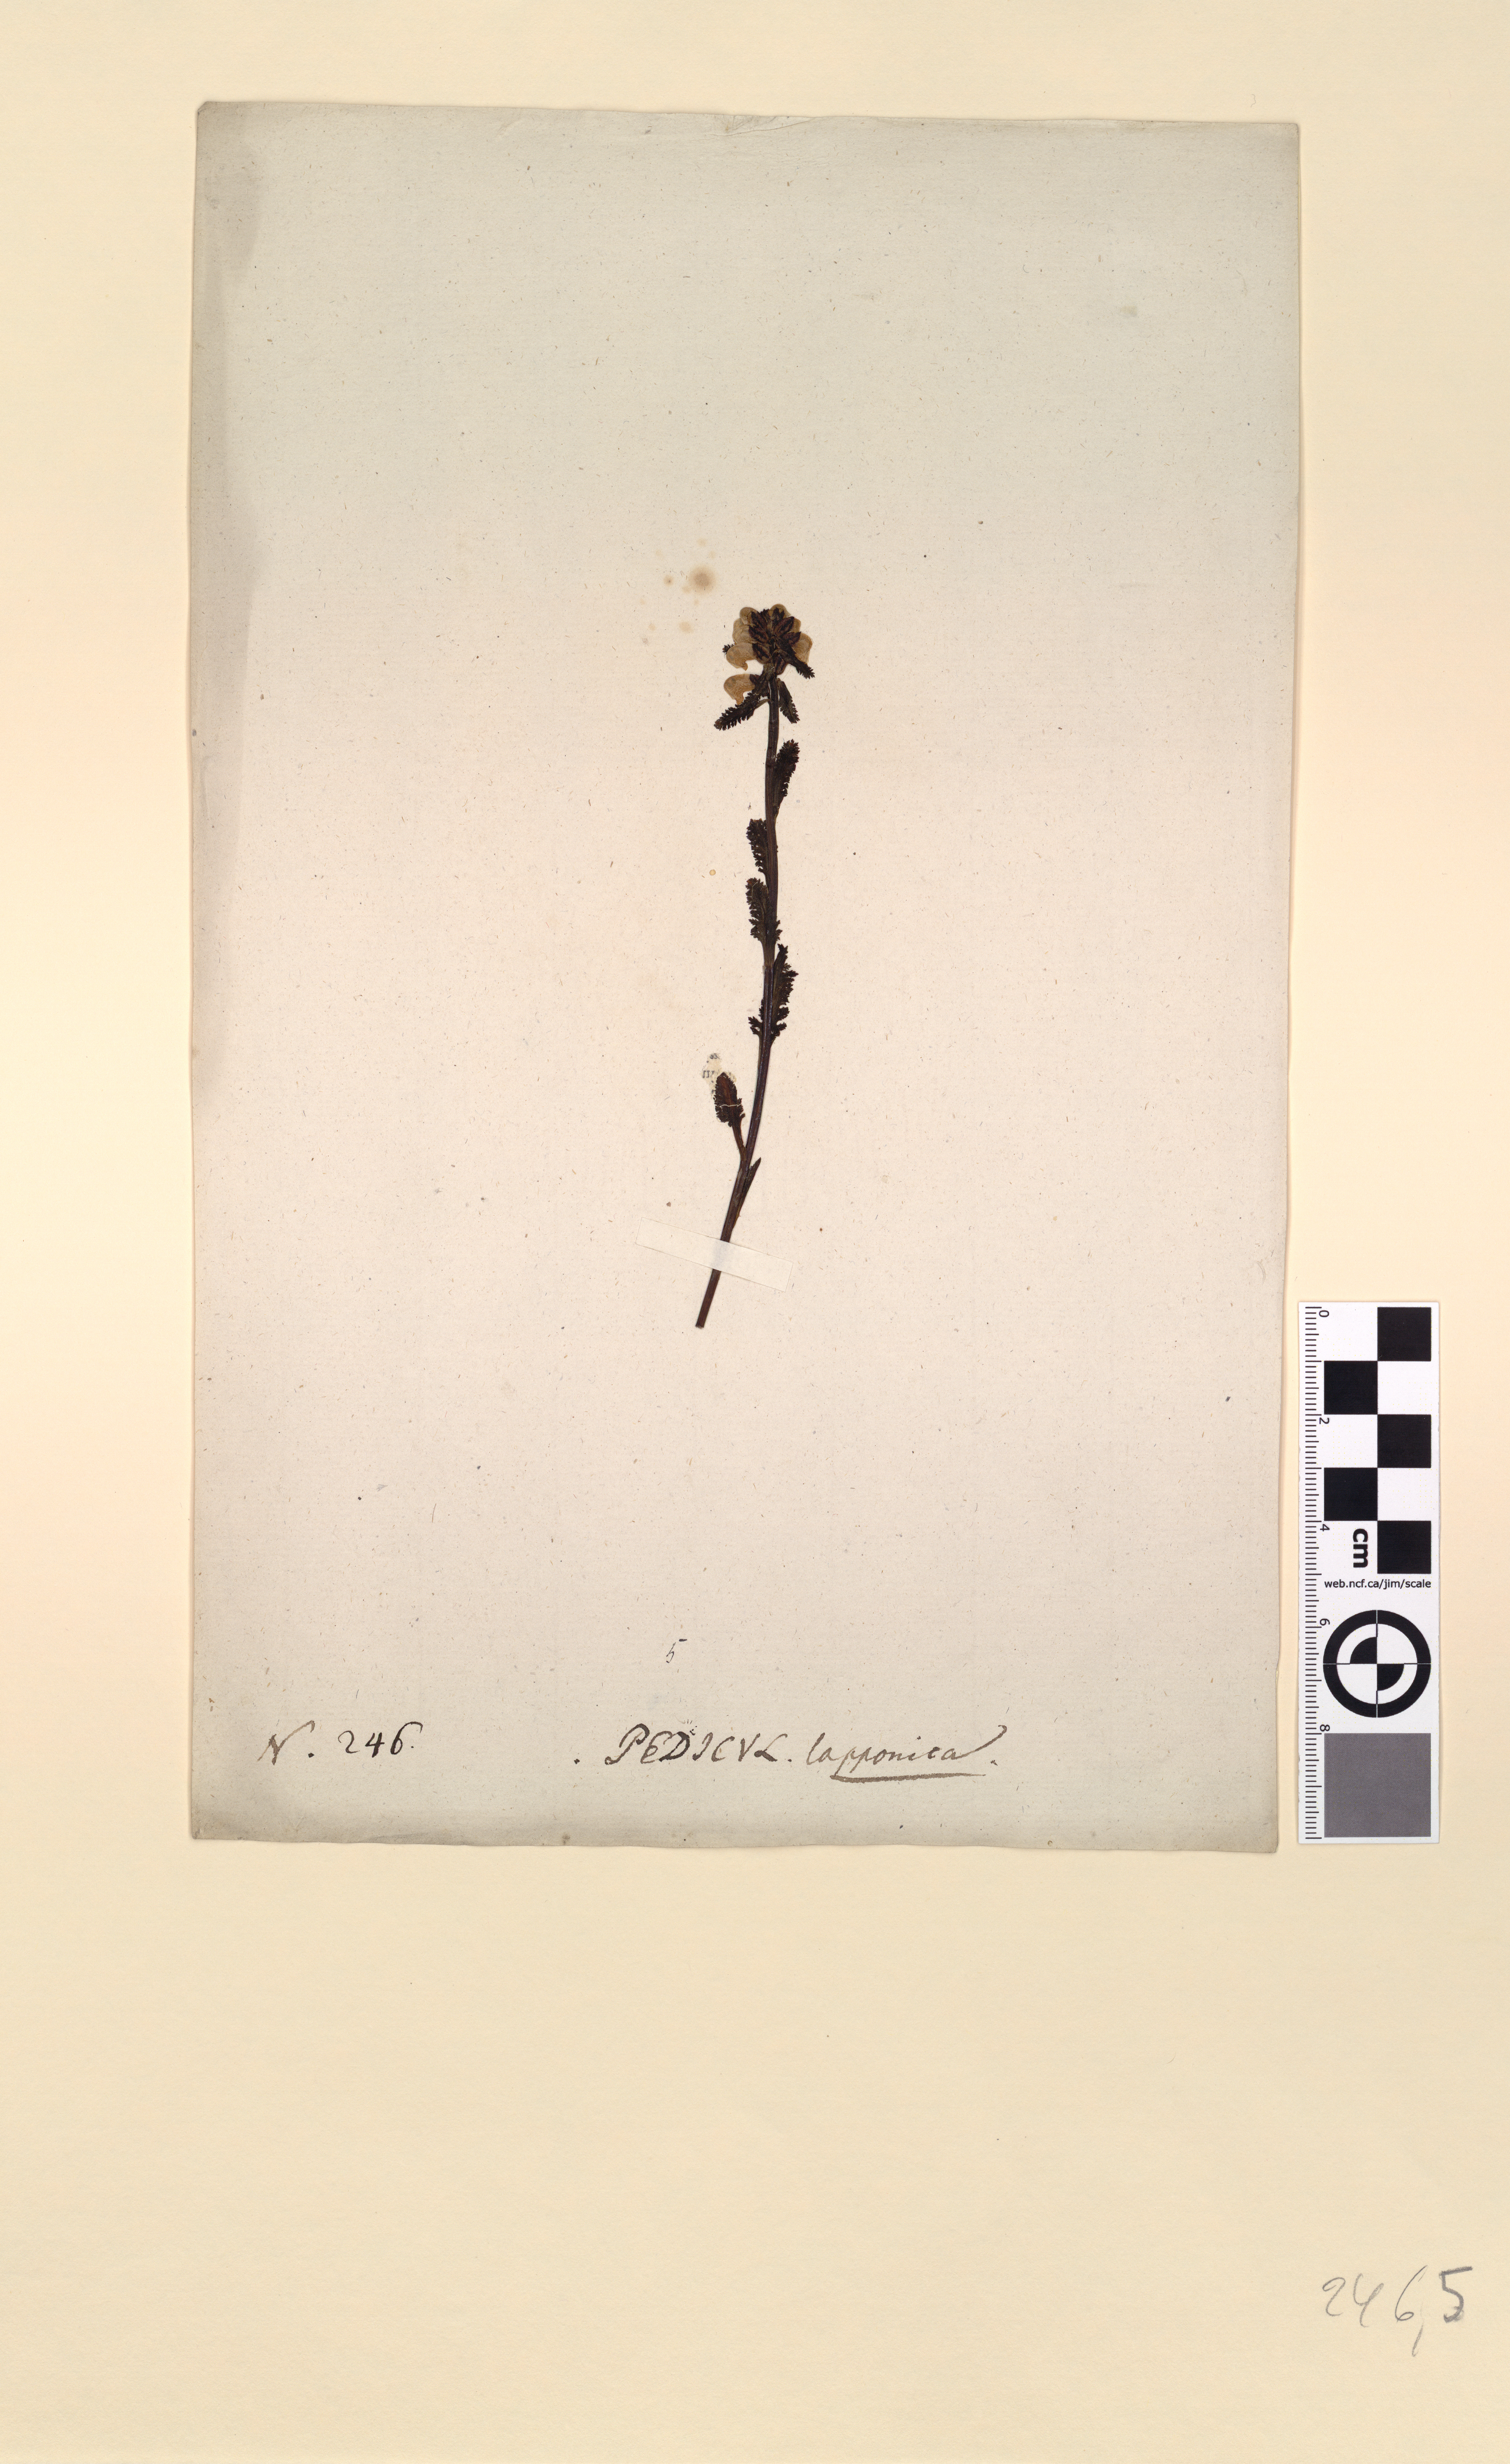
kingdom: Plantae
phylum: Tracheophyta
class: Magnoliopsida
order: Lamiales
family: Orobanchaceae
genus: Pedicularis
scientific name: Pedicularis lapponica
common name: Lapland lousewort
